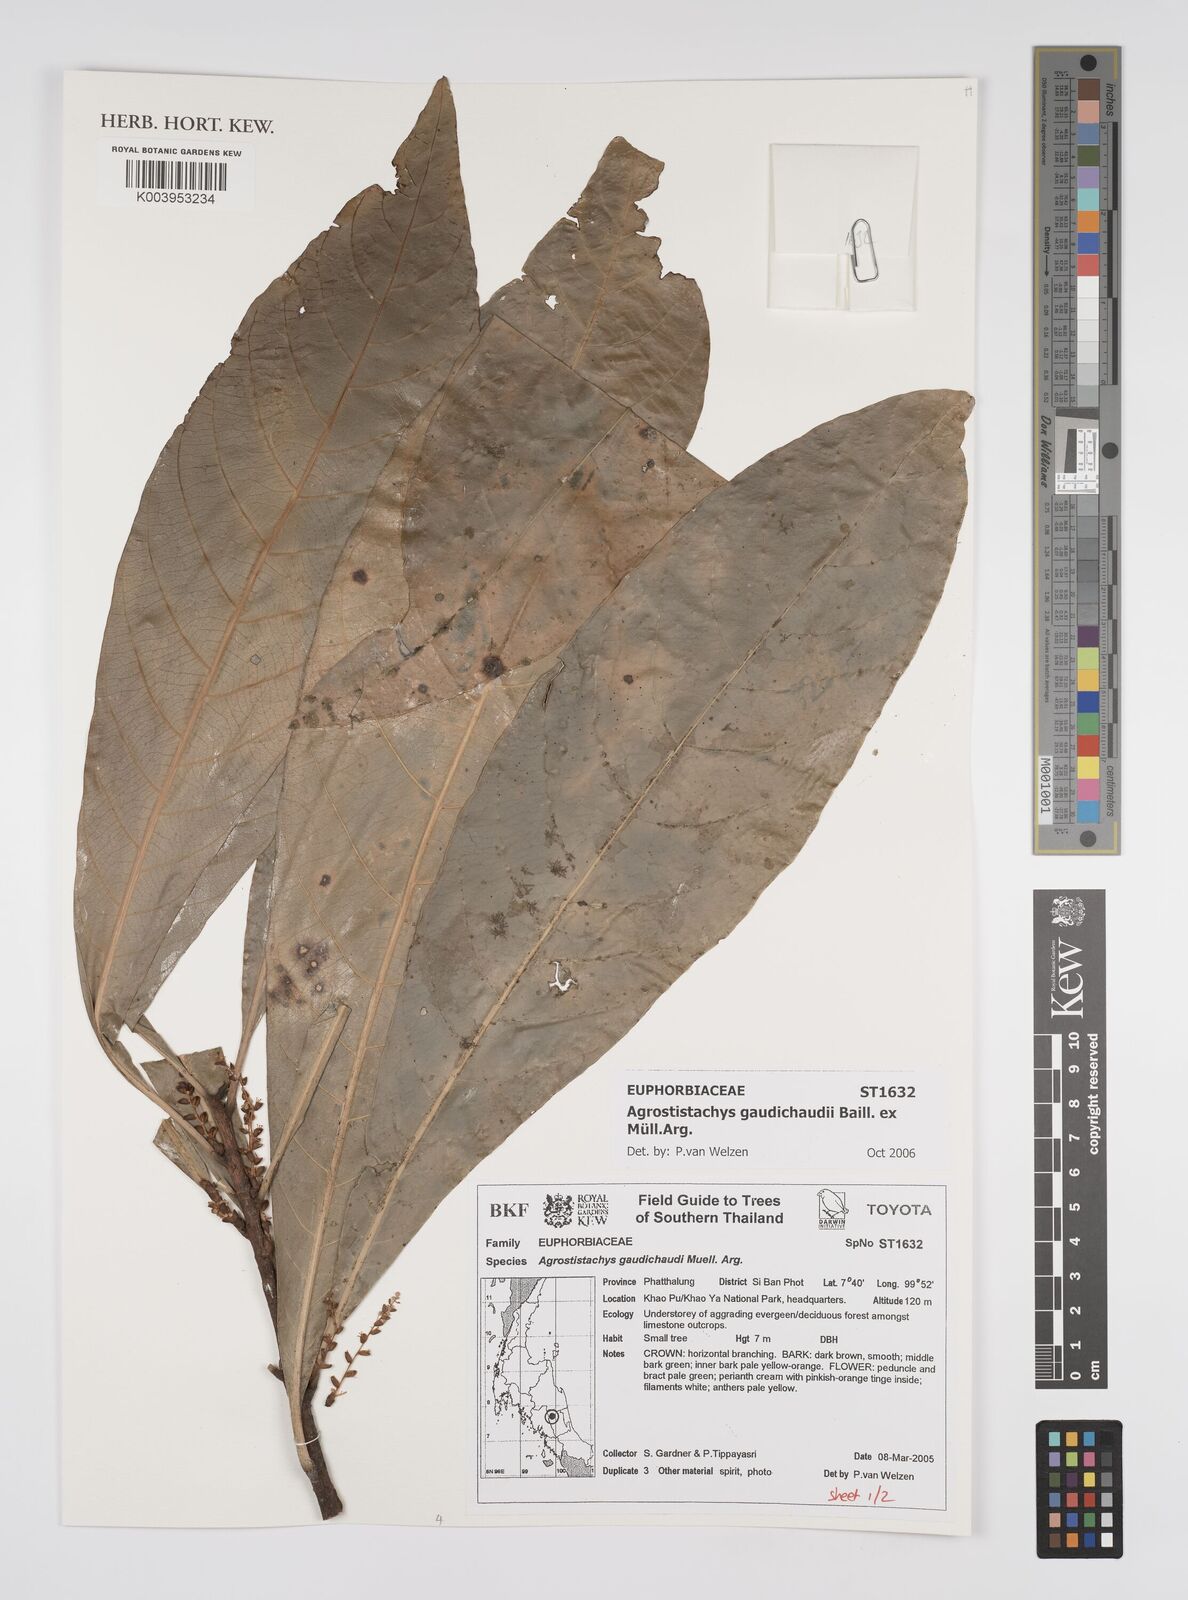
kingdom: Plantae
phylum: Tracheophyta
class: Magnoliopsida
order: Malpighiales
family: Euphorbiaceae
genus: Agrostistachys
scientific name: Agrostistachys gaudichaudii
